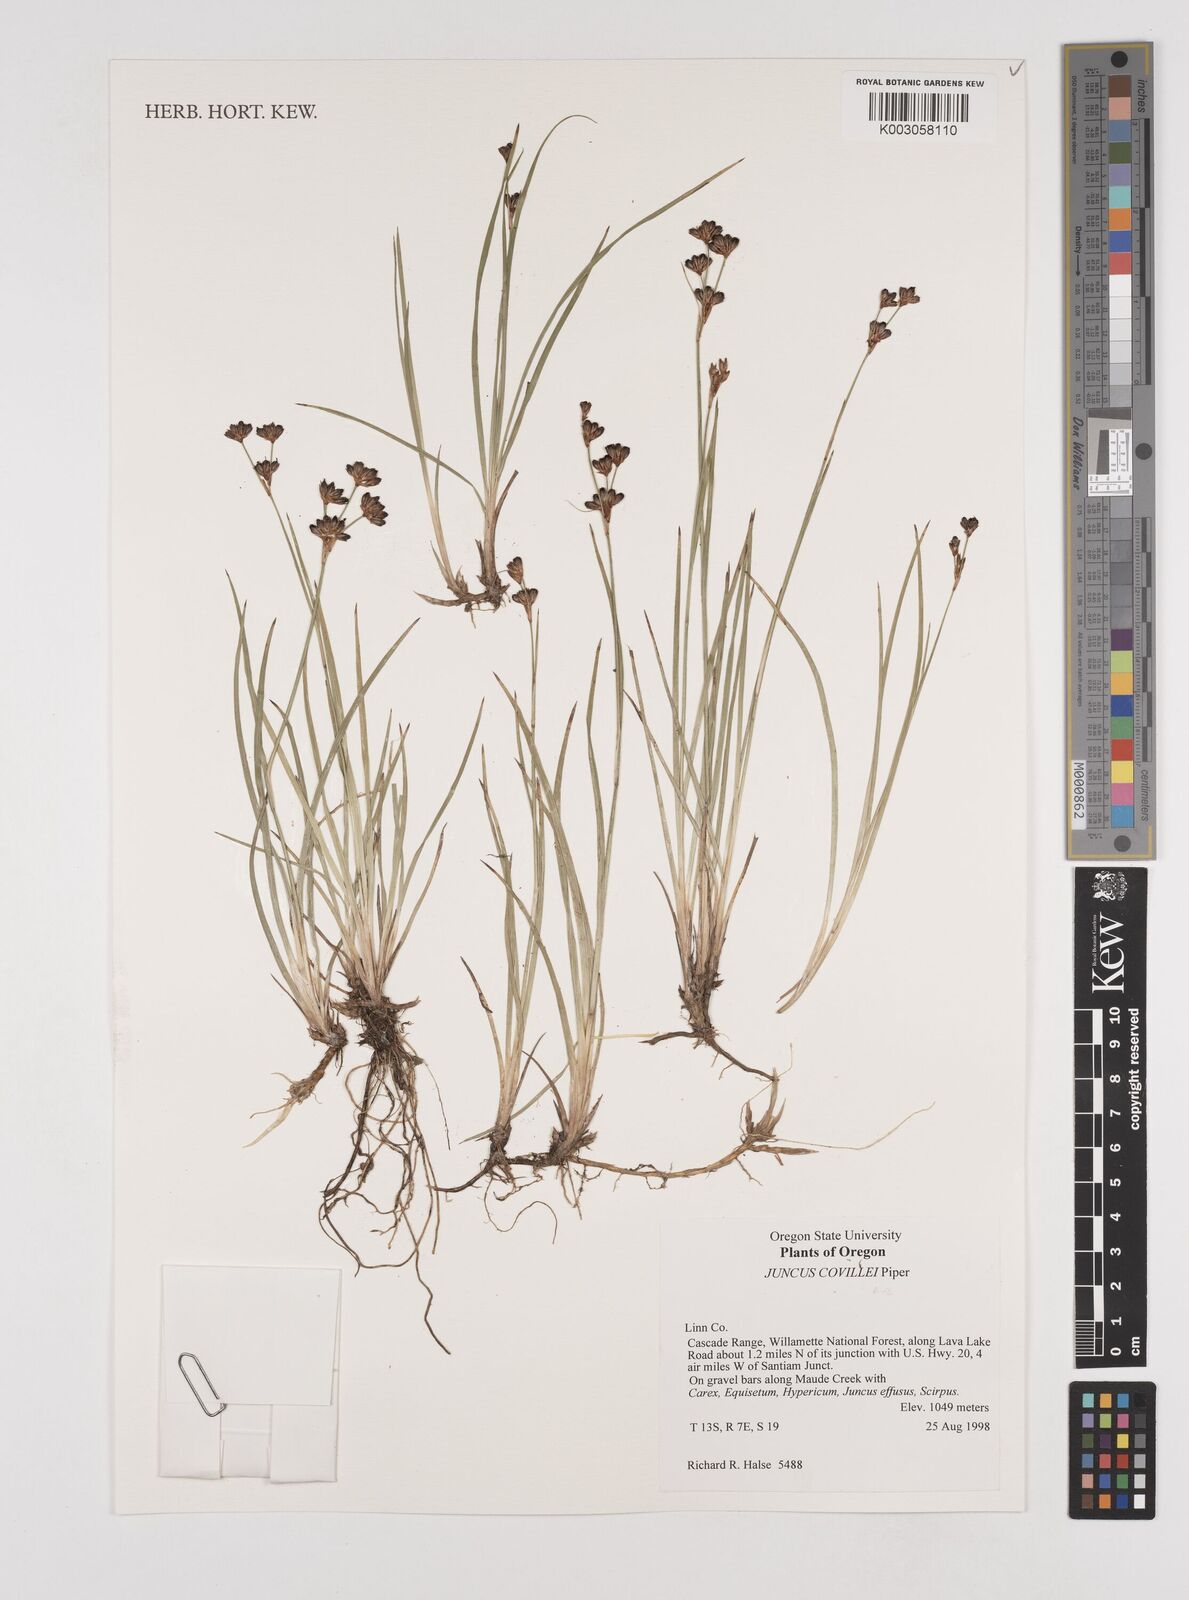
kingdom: Plantae
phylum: Tracheophyta
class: Liliopsida
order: Poales
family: Juncaceae
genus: Juncus
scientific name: Juncus covillei
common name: Coville's rush
